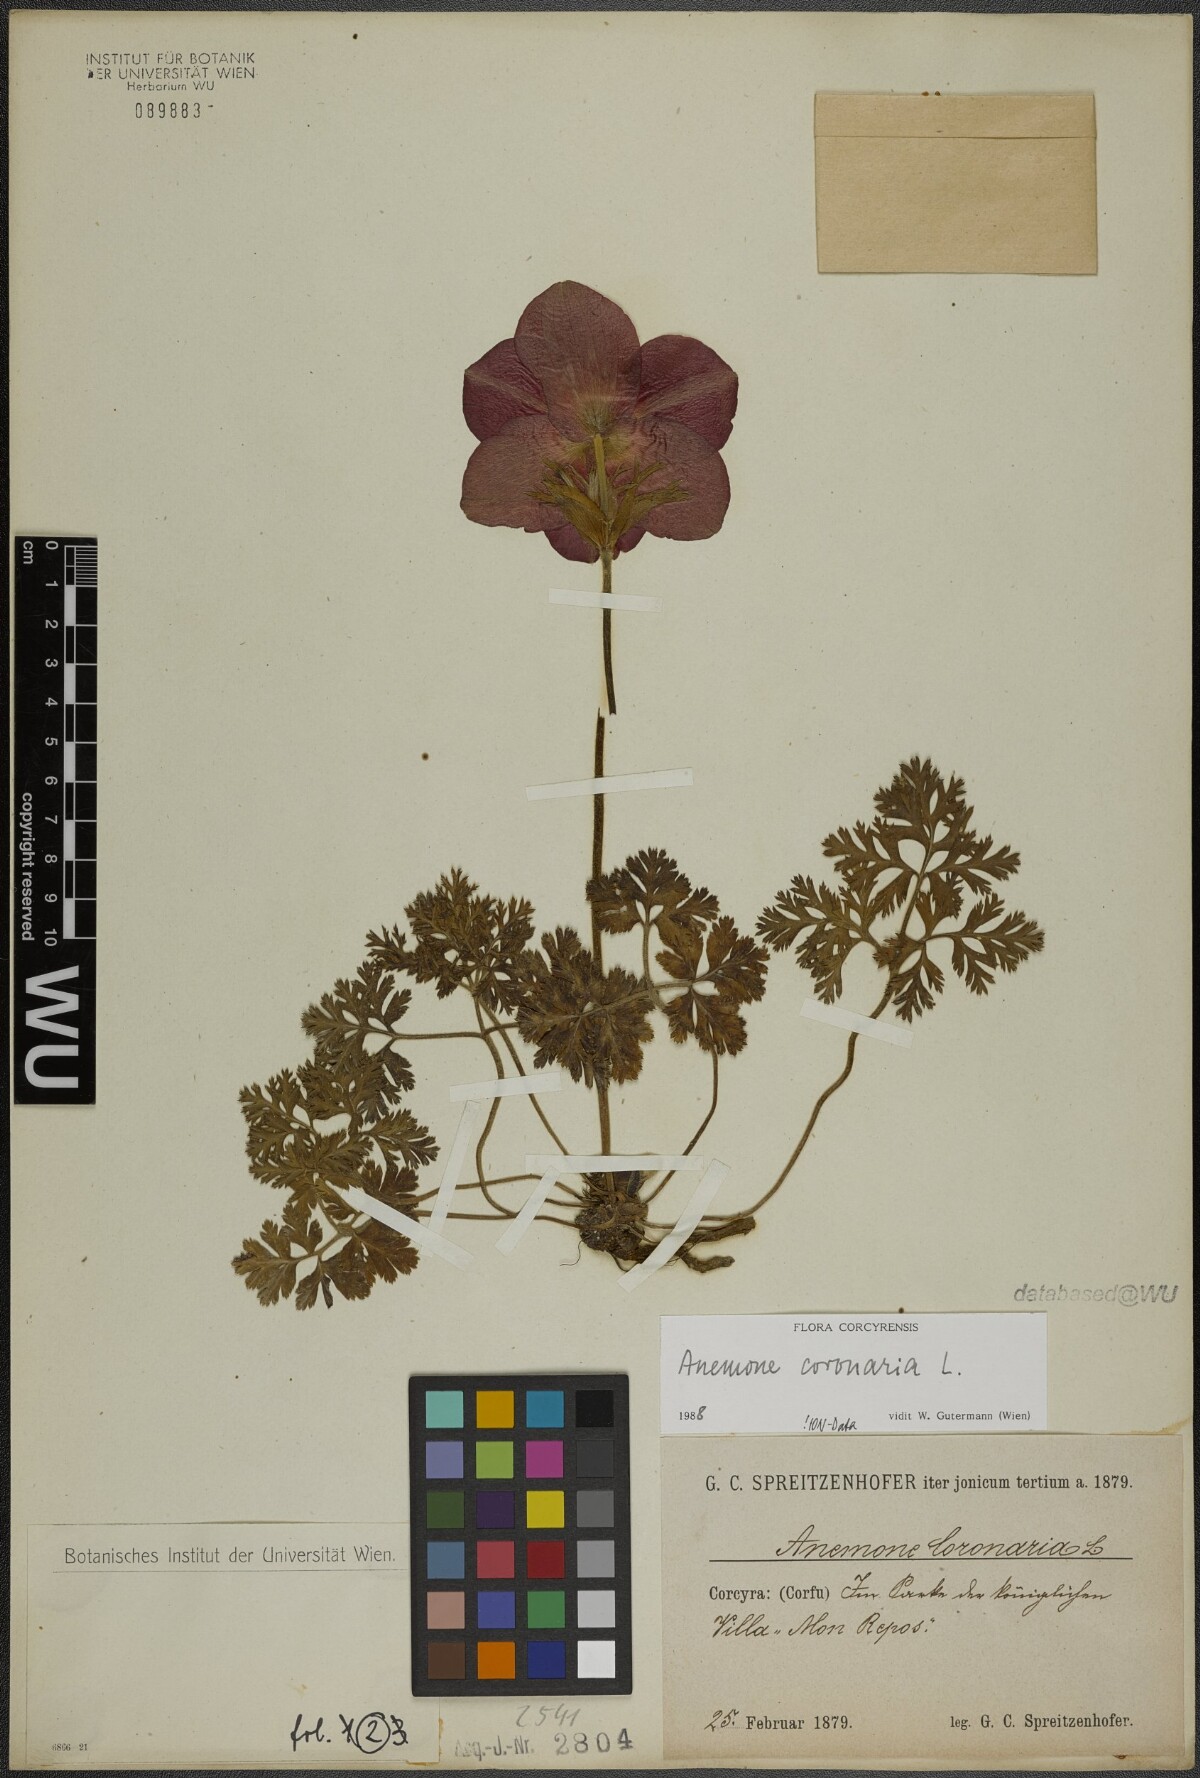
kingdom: Plantae
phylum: Tracheophyta
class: Magnoliopsida
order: Ranunculales
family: Ranunculaceae
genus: Anemone
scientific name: Anemone coronaria
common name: Poppy anemone
